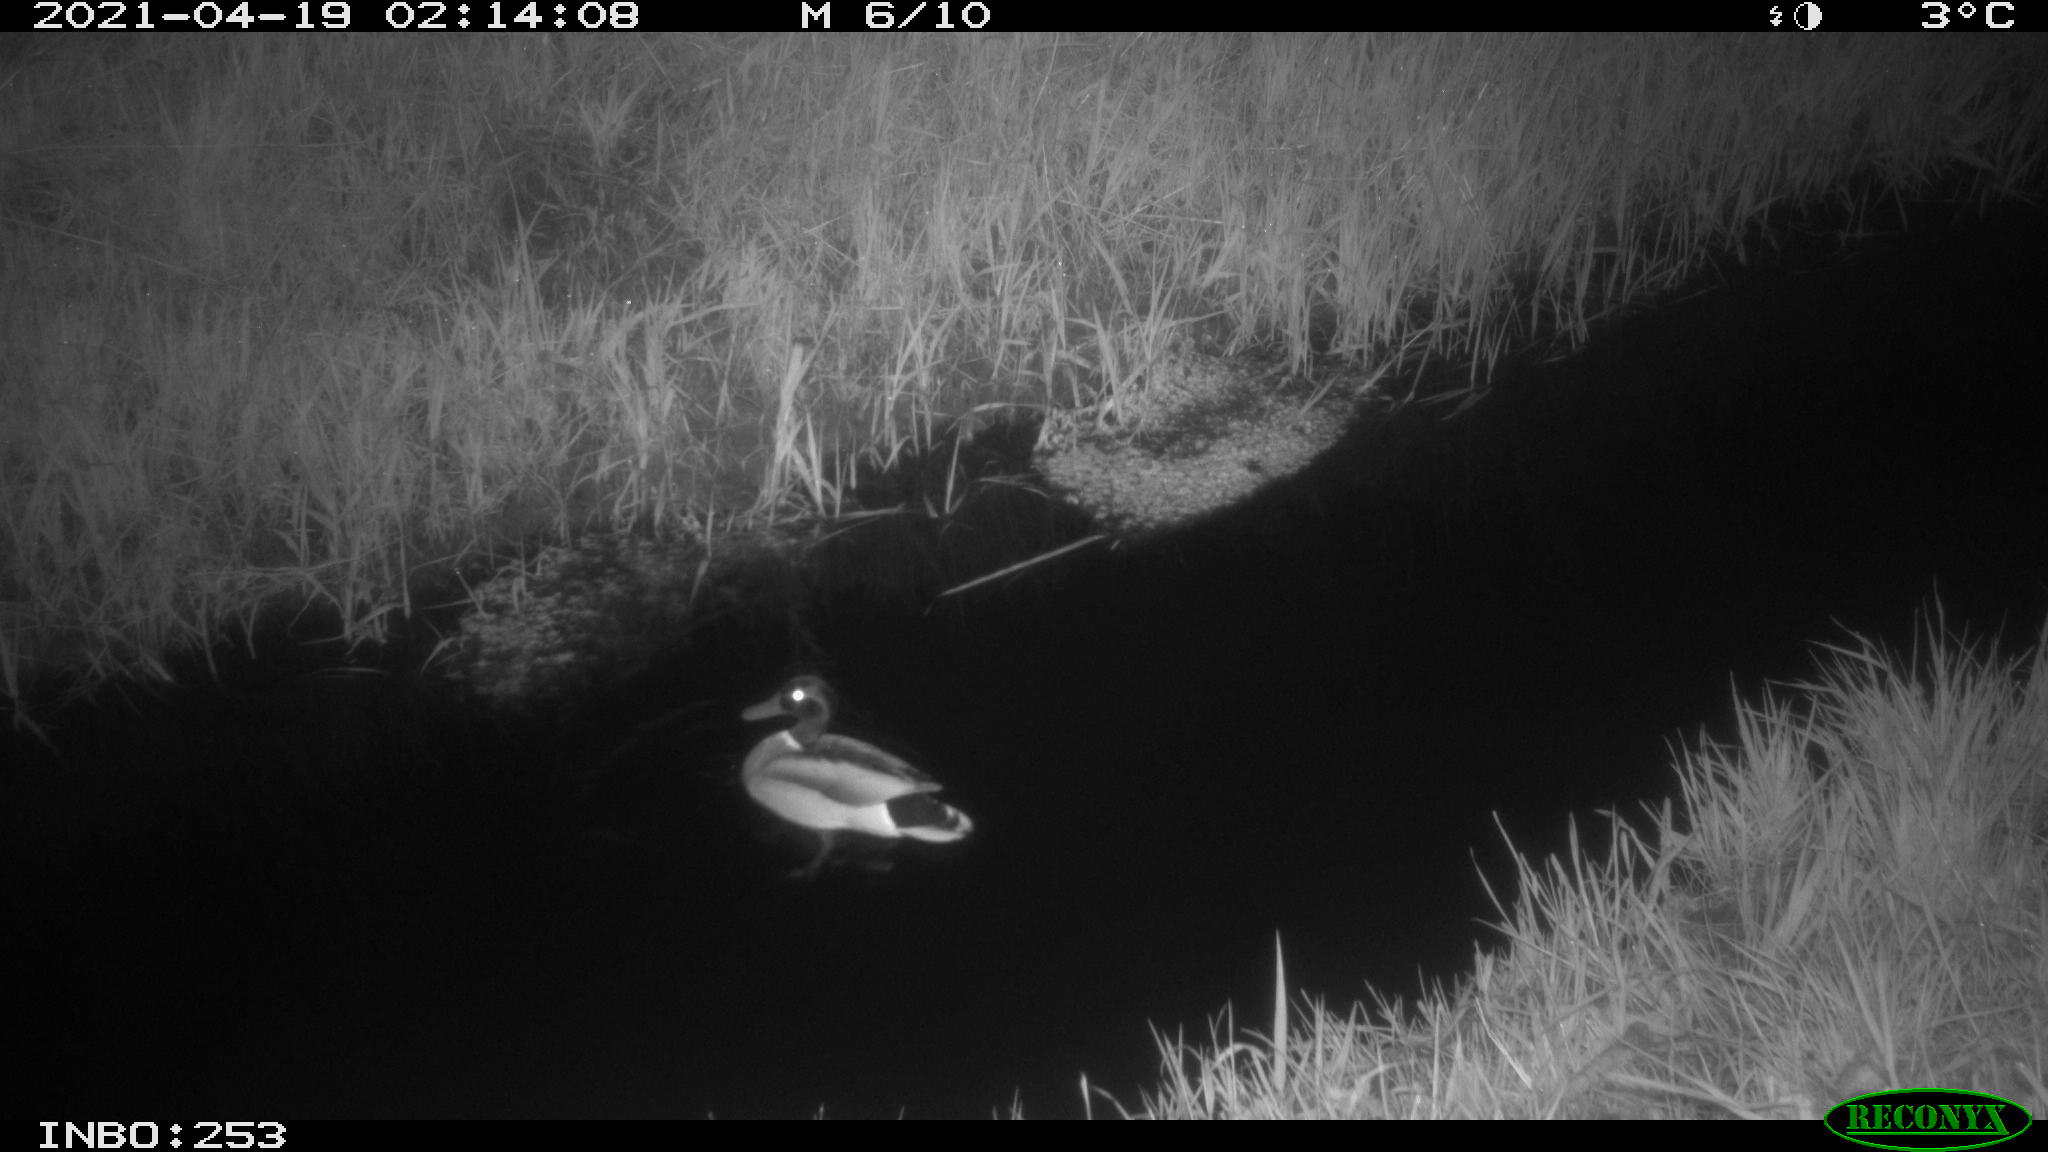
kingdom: Animalia
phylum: Chordata
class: Aves
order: Anseriformes
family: Anatidae
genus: Anas
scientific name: Anas platyrhynchos
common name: Mallard
